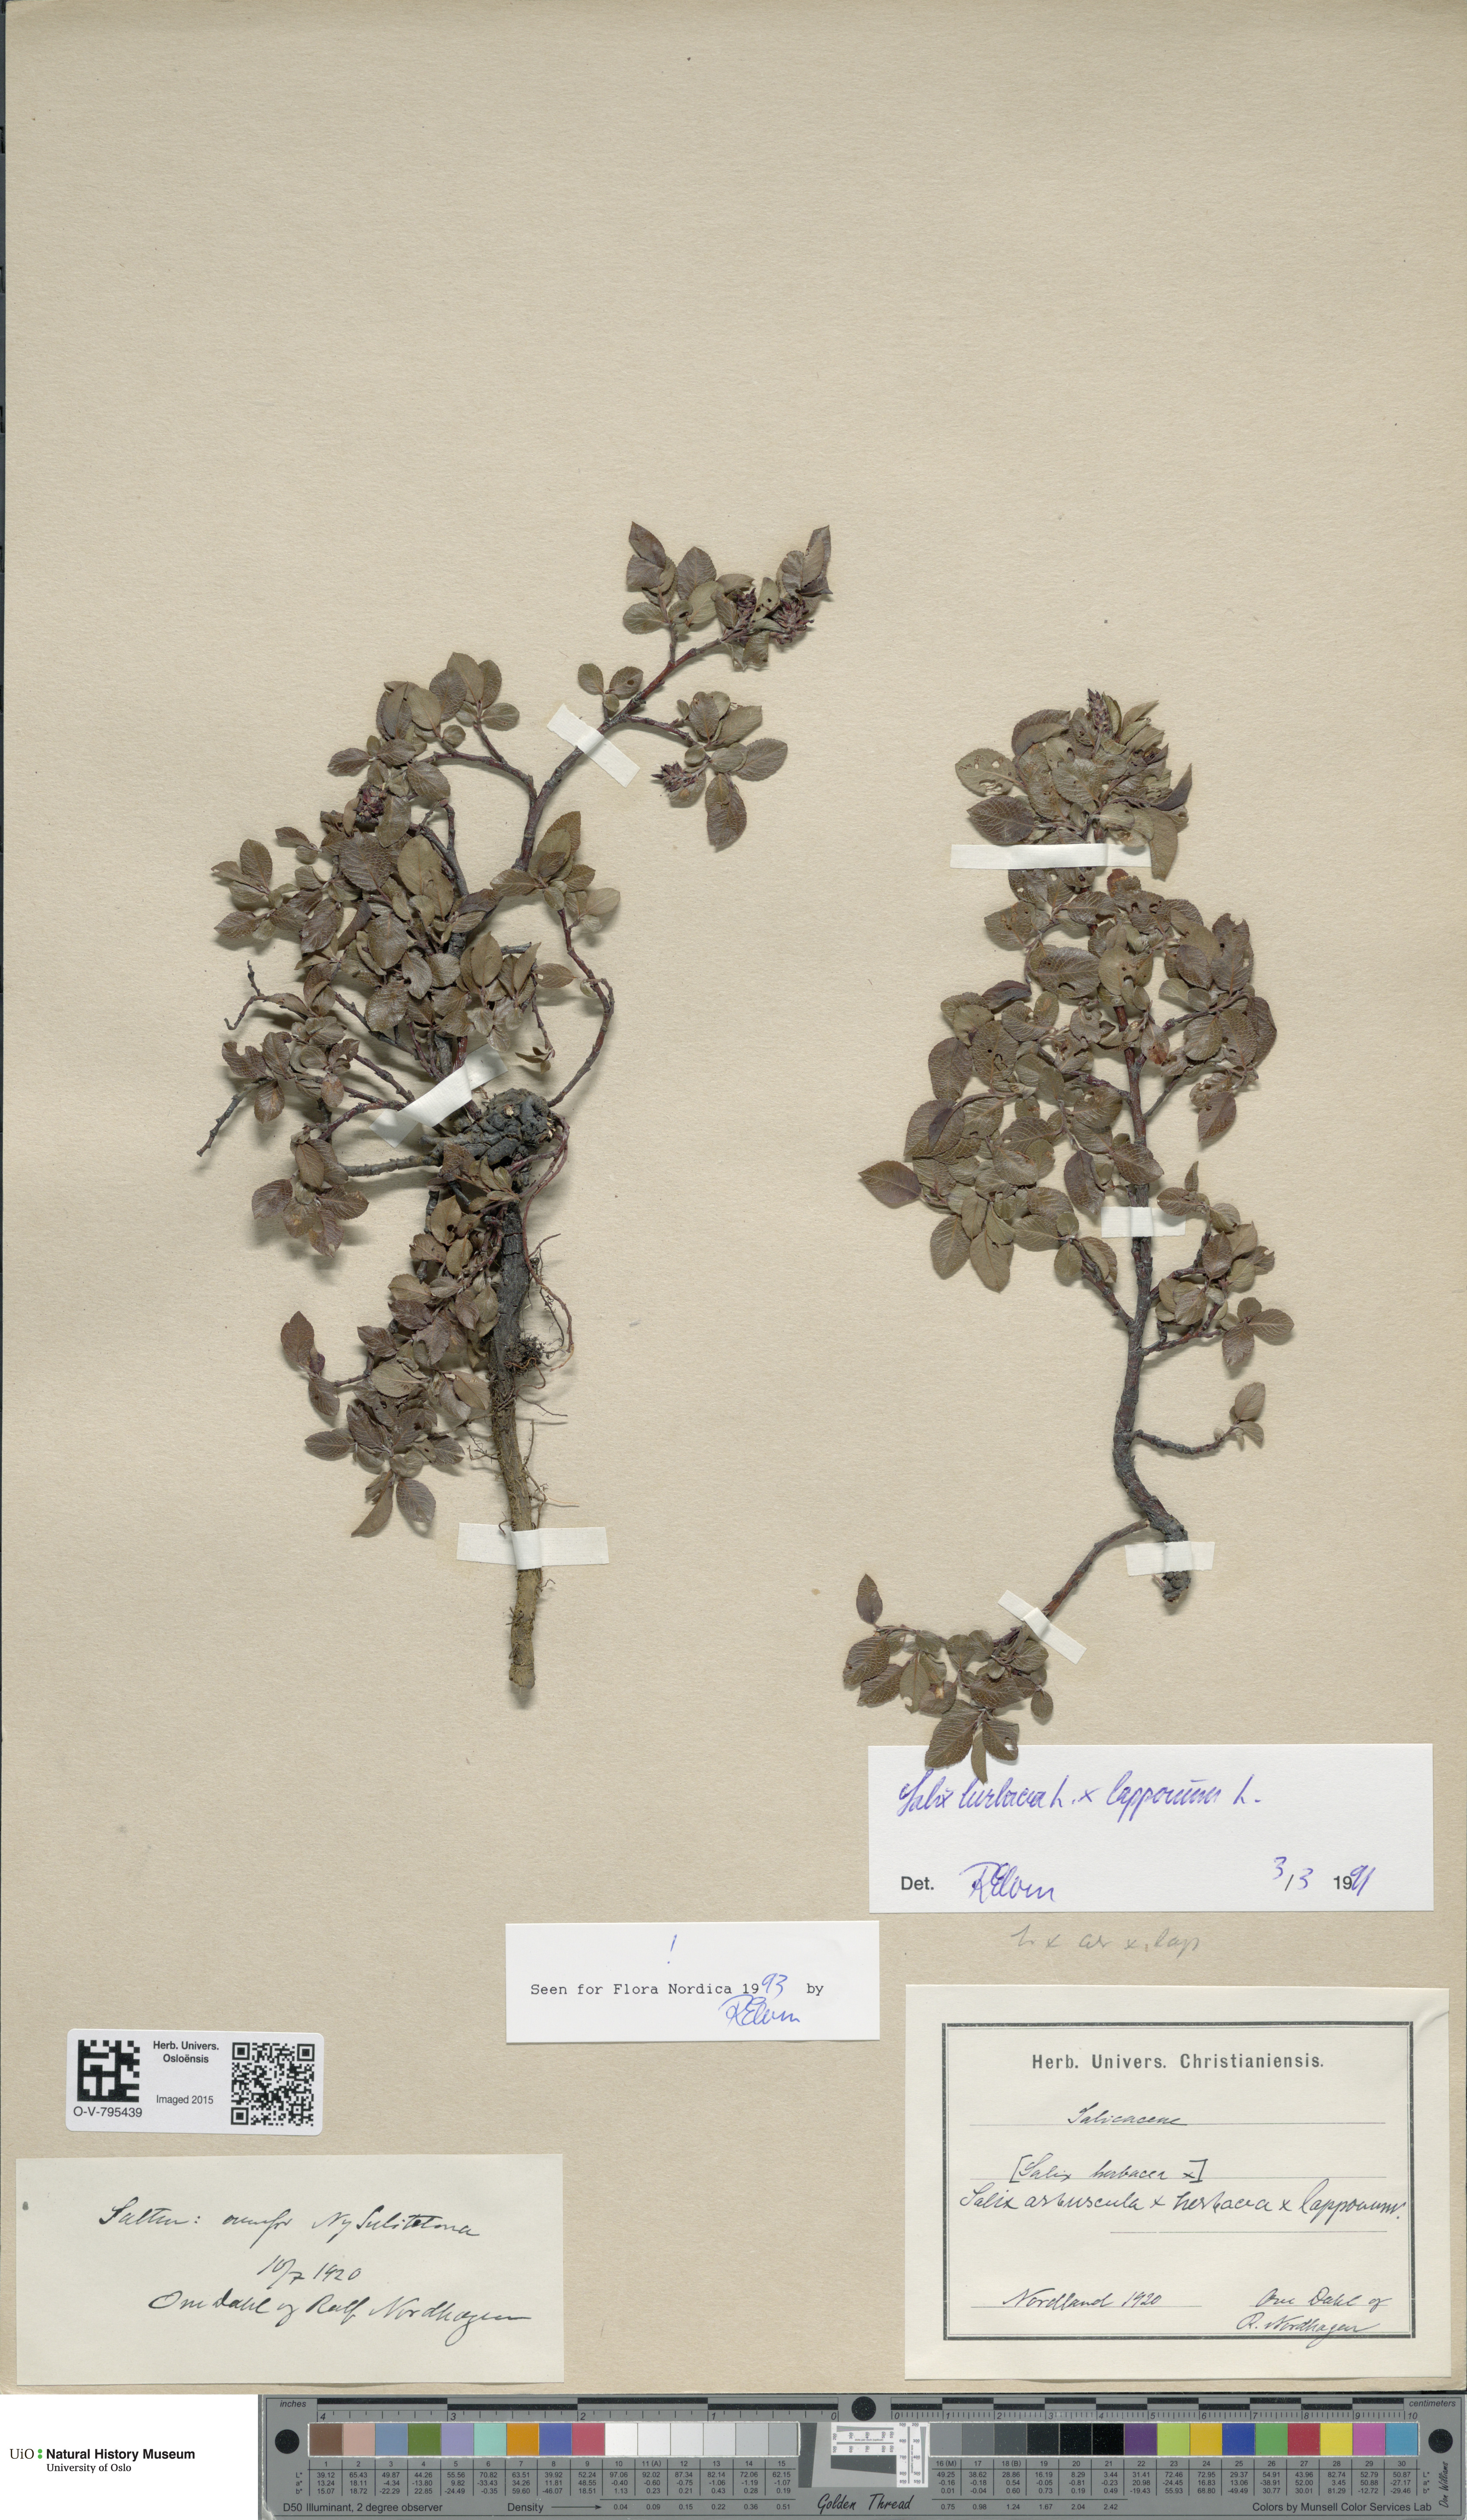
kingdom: Plantae
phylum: Tracheophyta
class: Magnoliopsida
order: Malpighiales
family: Salicaceae
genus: Salix
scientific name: Salix
